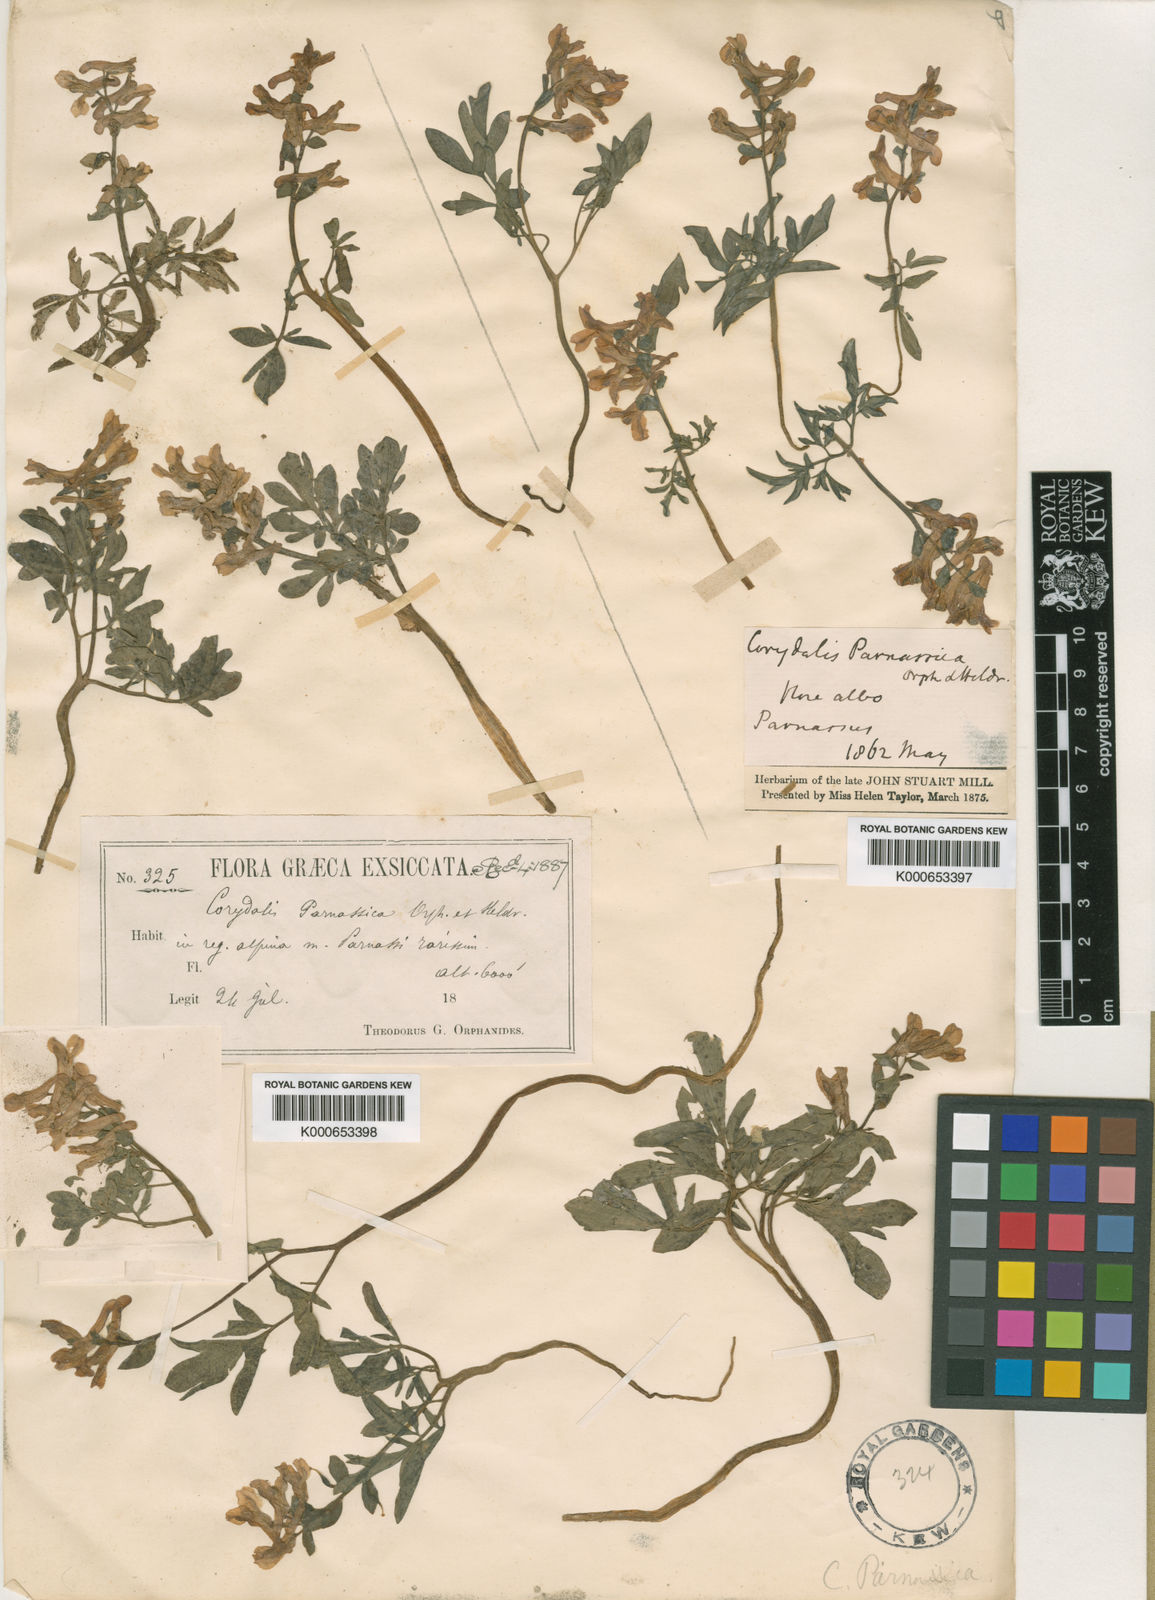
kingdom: Plantae
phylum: Tracheophyta
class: Magnoliopsida
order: Ranunculales
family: Papaveraceae
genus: Corydalis
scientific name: Corydalis blanda
